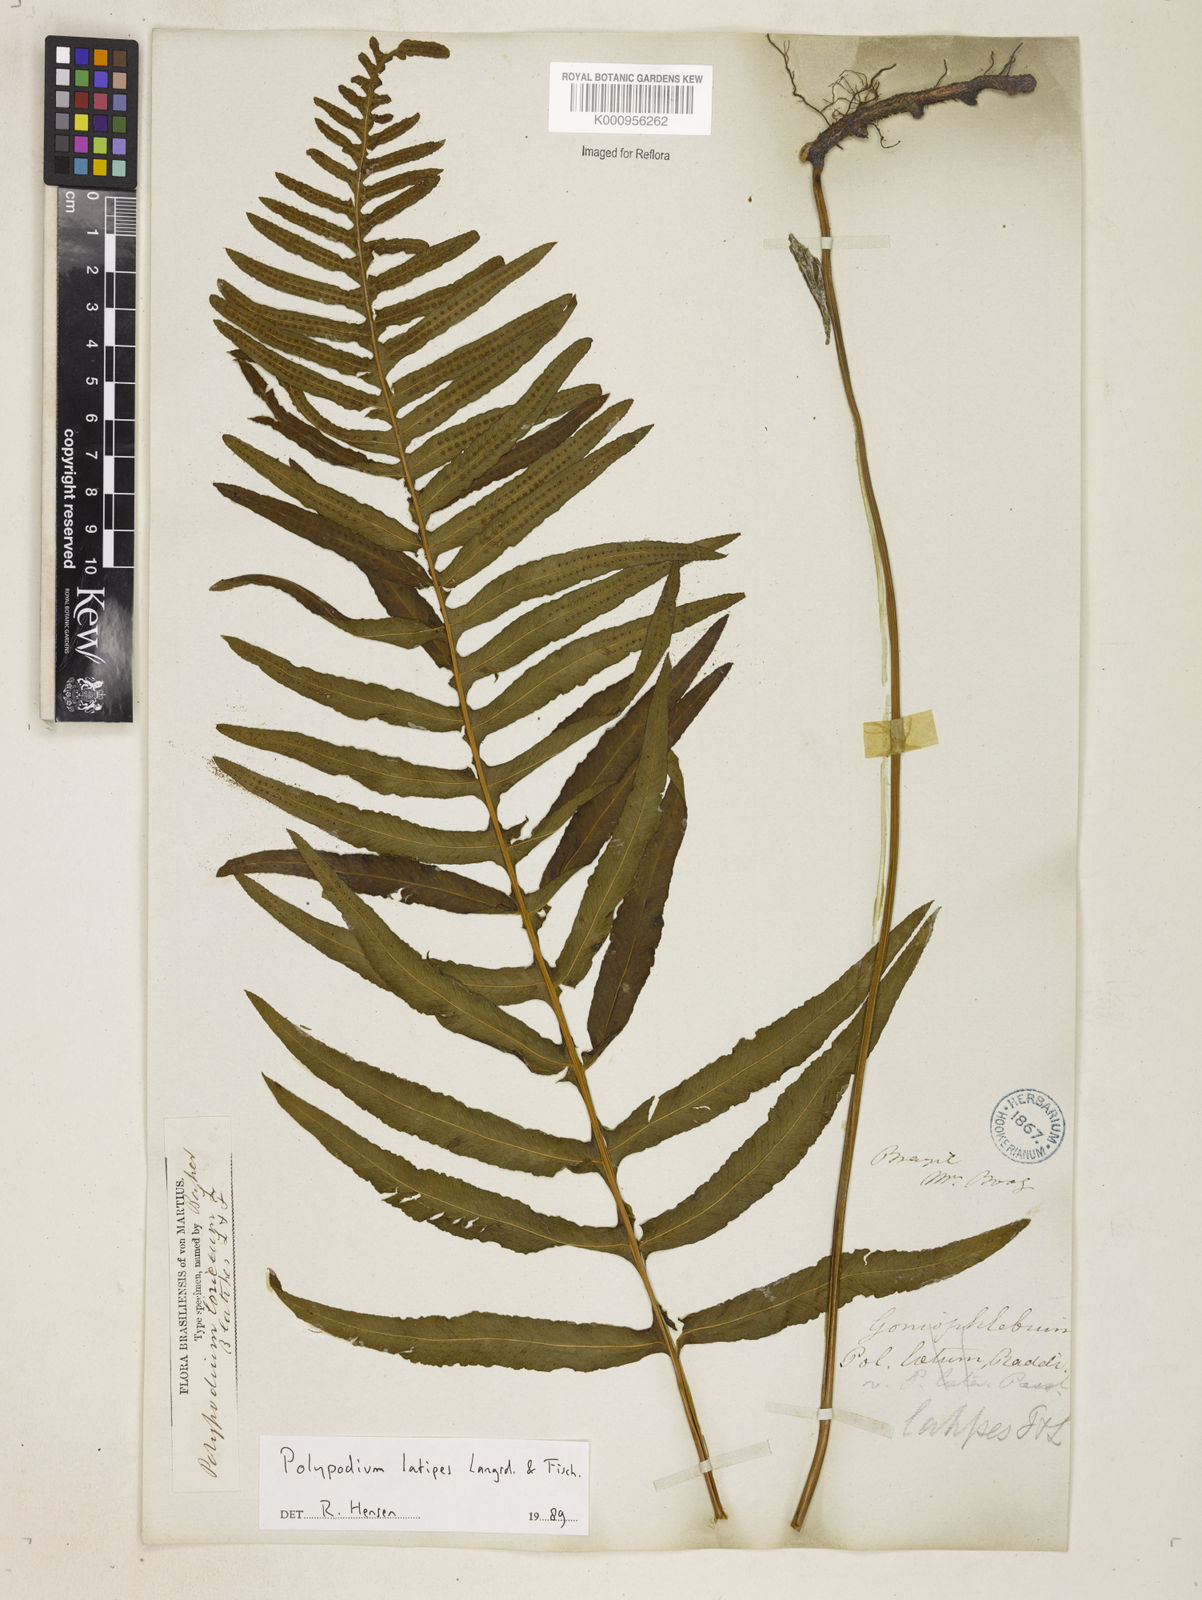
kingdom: Plantae
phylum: Tracheophyta
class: Polypodiopsida
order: Polypodiales
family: Polypodiaceae
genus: Serpocaulon
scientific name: Serpocaulon loriceum
